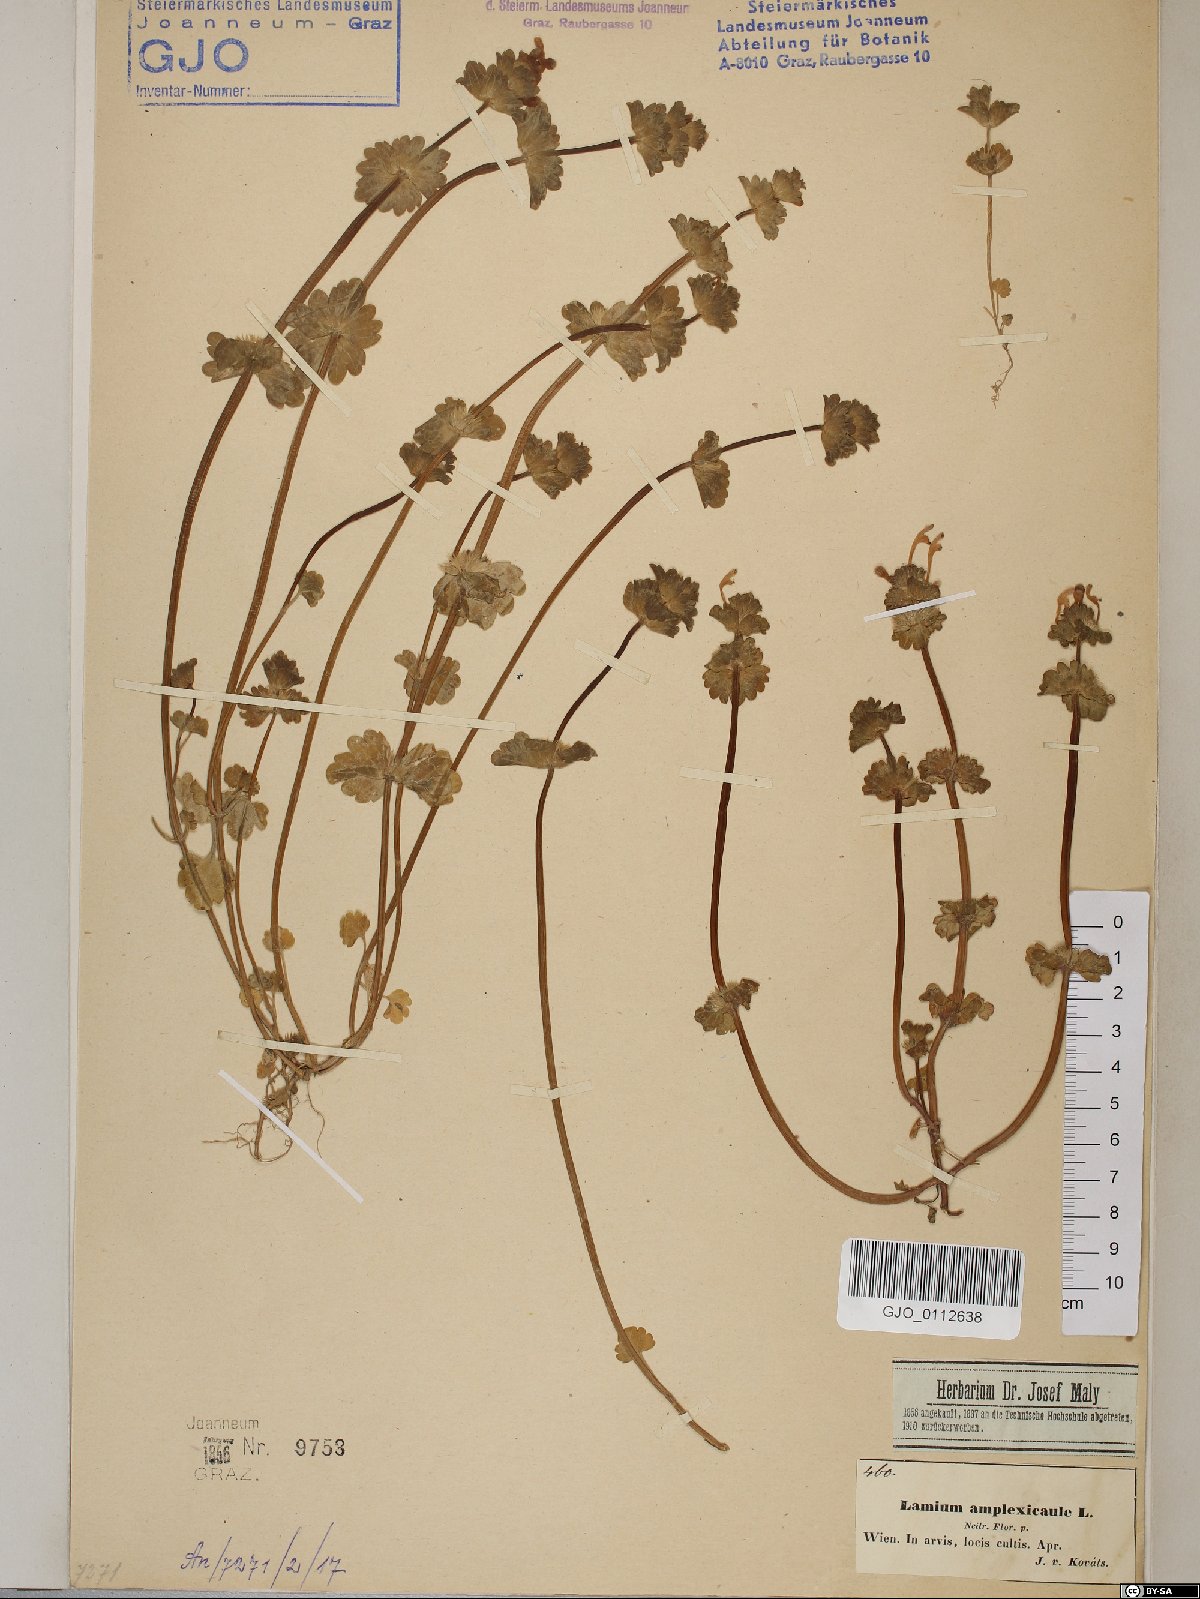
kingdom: Plantae
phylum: Tracheophyta
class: Magnoliopsida
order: Lamiales
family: Lamiaceae
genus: Lamium
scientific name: Lamium amplexicaule
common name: Henbit dead-nettle
